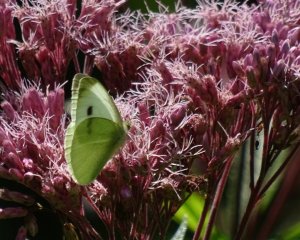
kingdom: Animalia
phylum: Arthropoda
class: Insecta
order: Lepidoptera
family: Pieridae
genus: Pieris
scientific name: Pieris rapae
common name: Cabbage White
